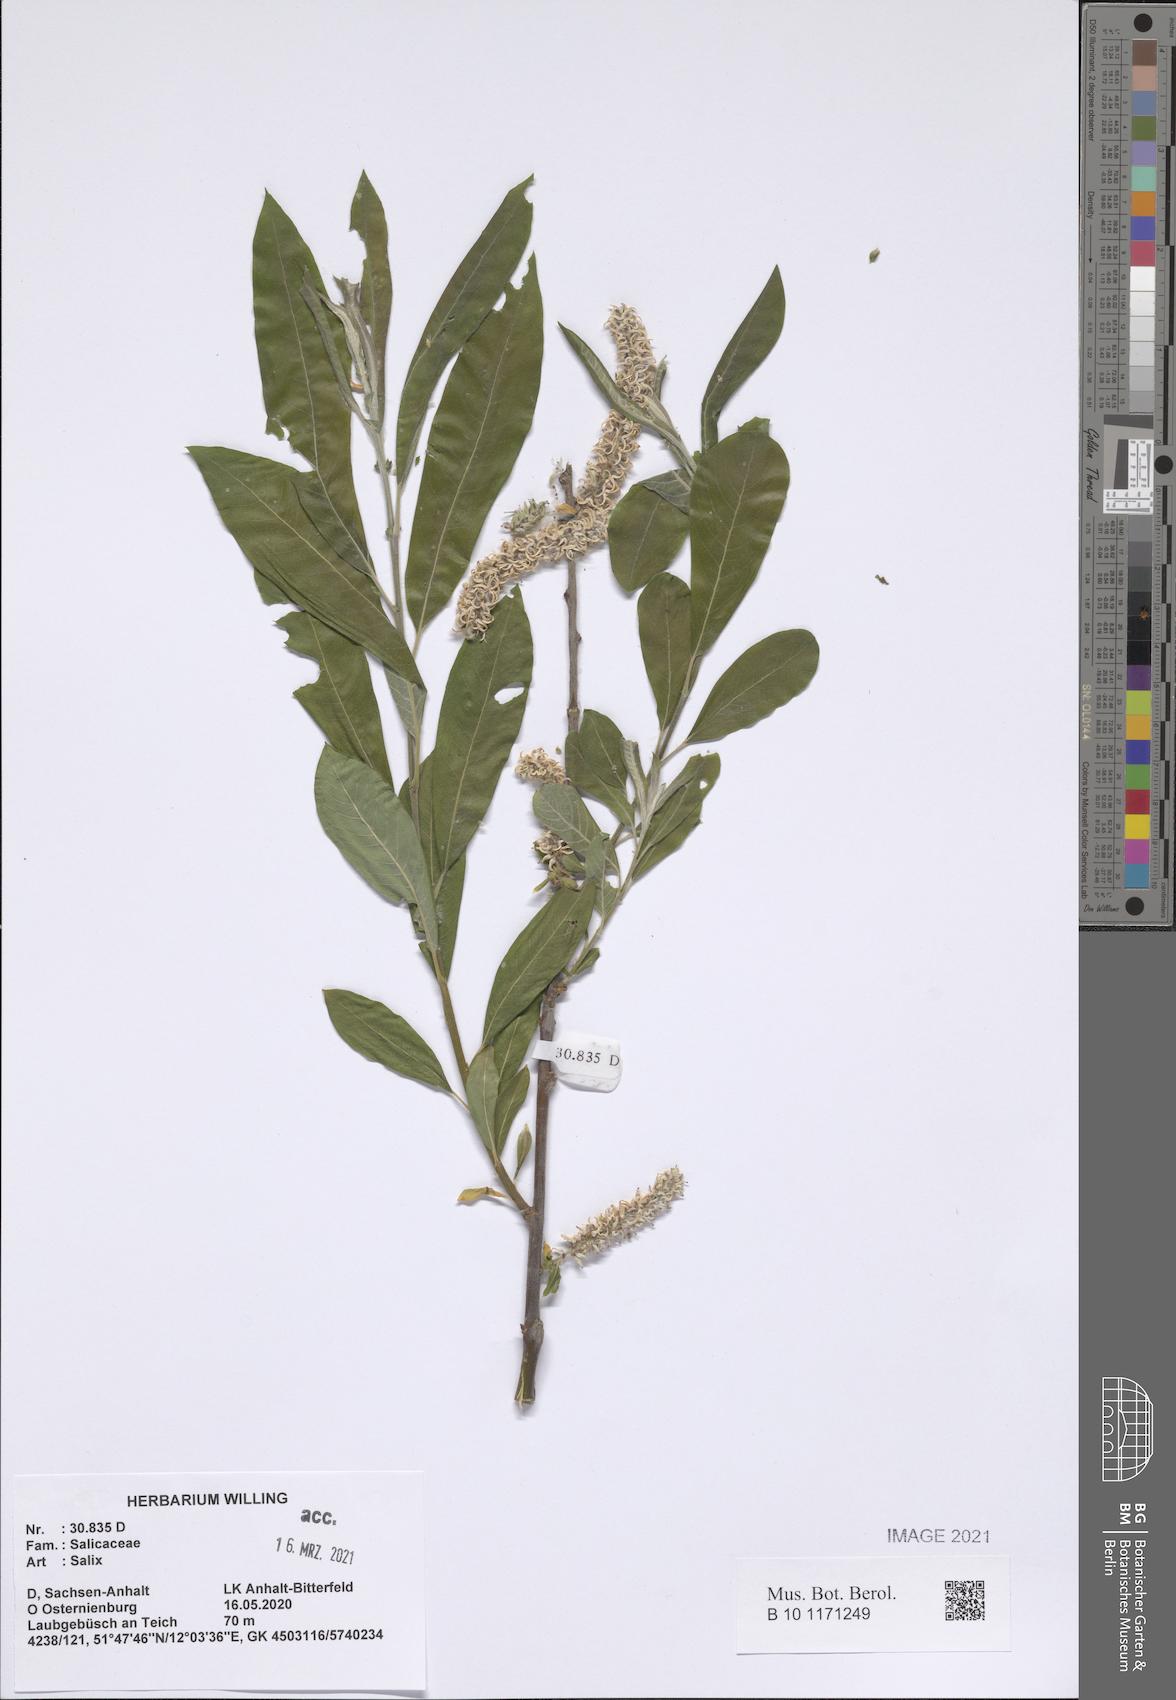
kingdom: Plantae
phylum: Tracheophyta
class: Magnoliopsida
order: Malpighiales
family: Salicaceae
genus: Salix
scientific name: Salix
